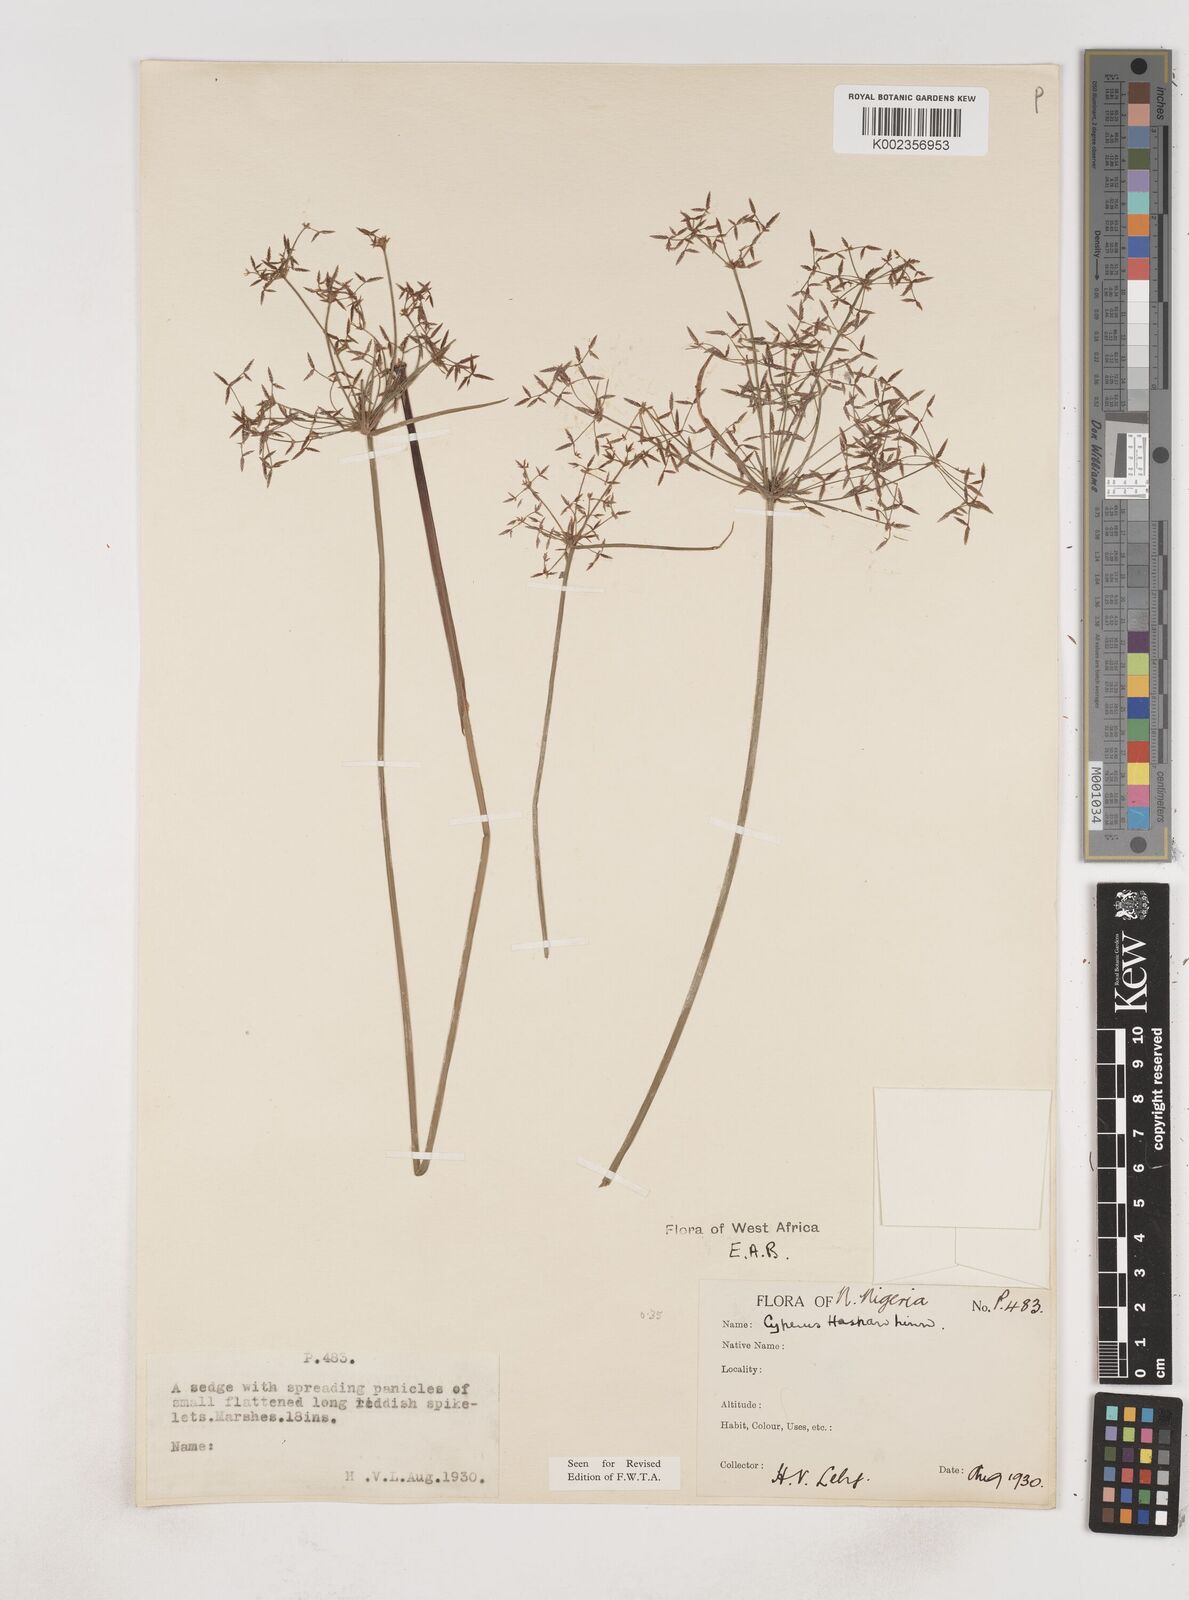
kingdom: Plantae
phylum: Tracheophyta
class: Liliopsida
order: Poales
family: Cyperaceae
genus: Cyperus
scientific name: Cyperus haspan
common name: Haspan flatsedge
